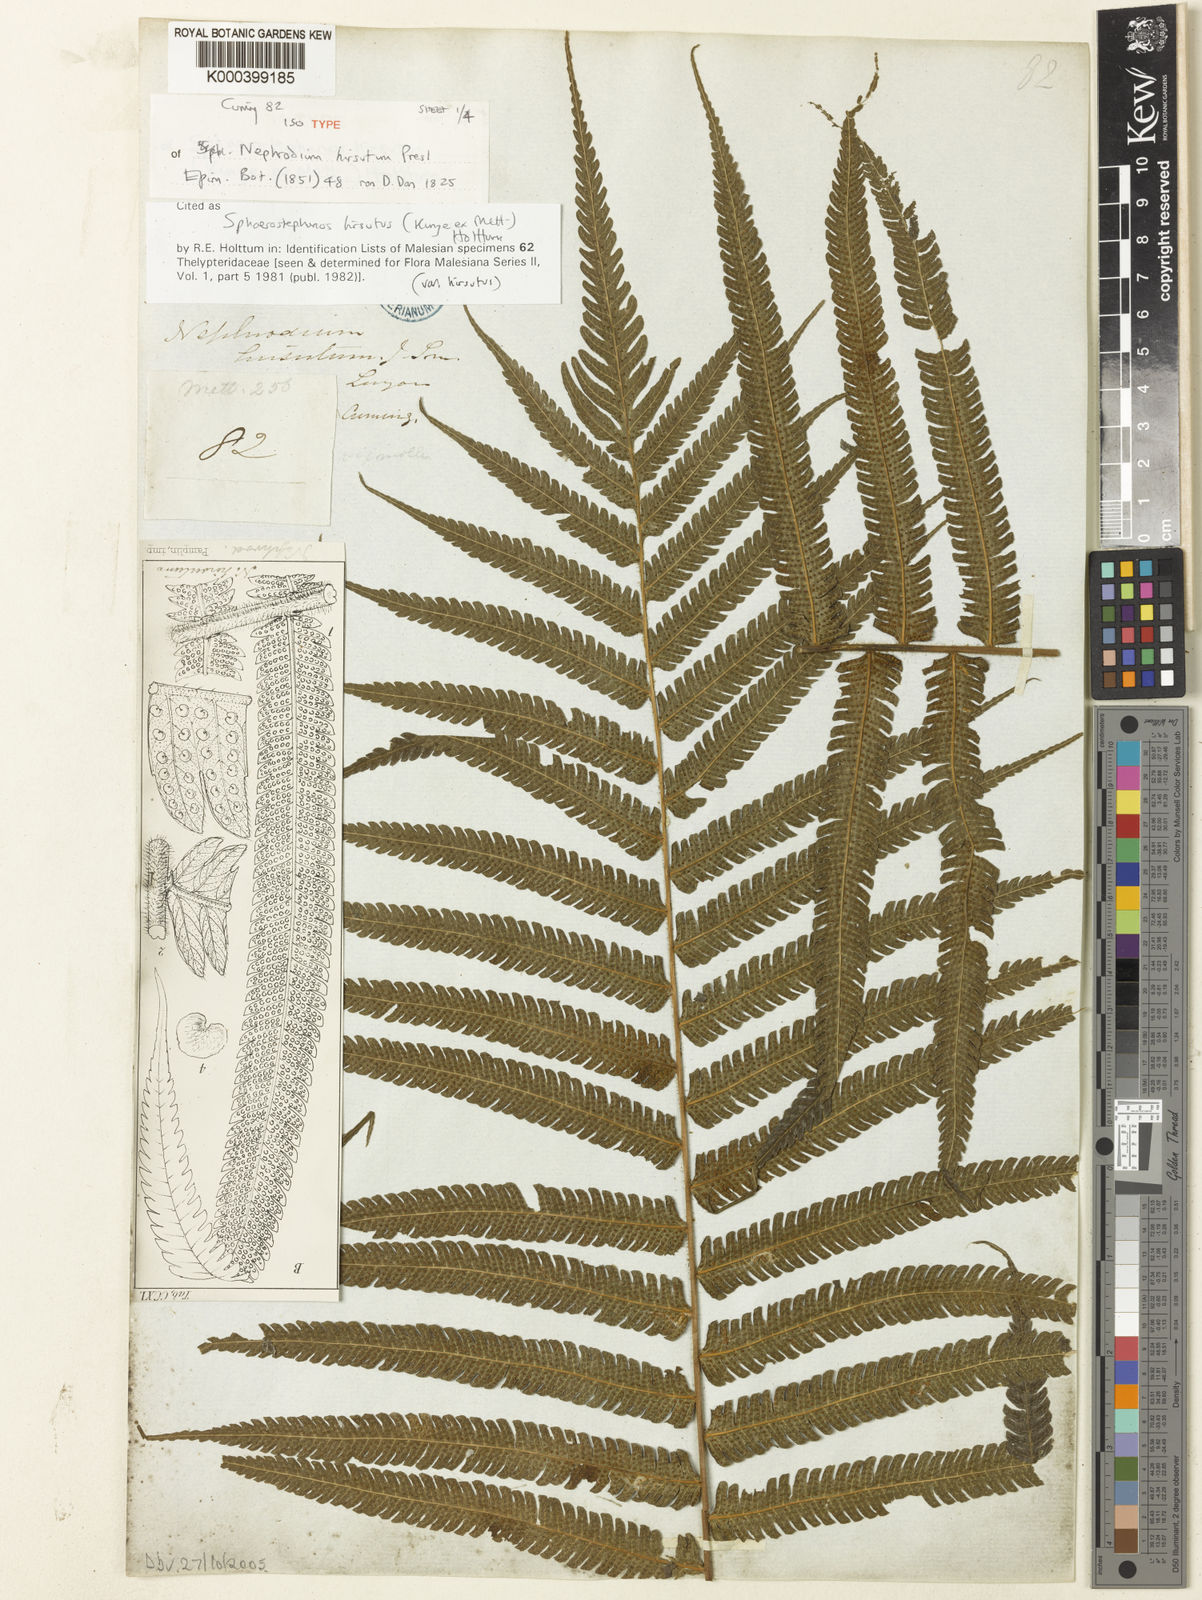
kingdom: Plantae
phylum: Tracheophyta
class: Polypodiopsida
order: Polypodiales
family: Thelypteridaceae
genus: Sphaerostephanos
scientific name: Sphaerostephanos hirsutus
